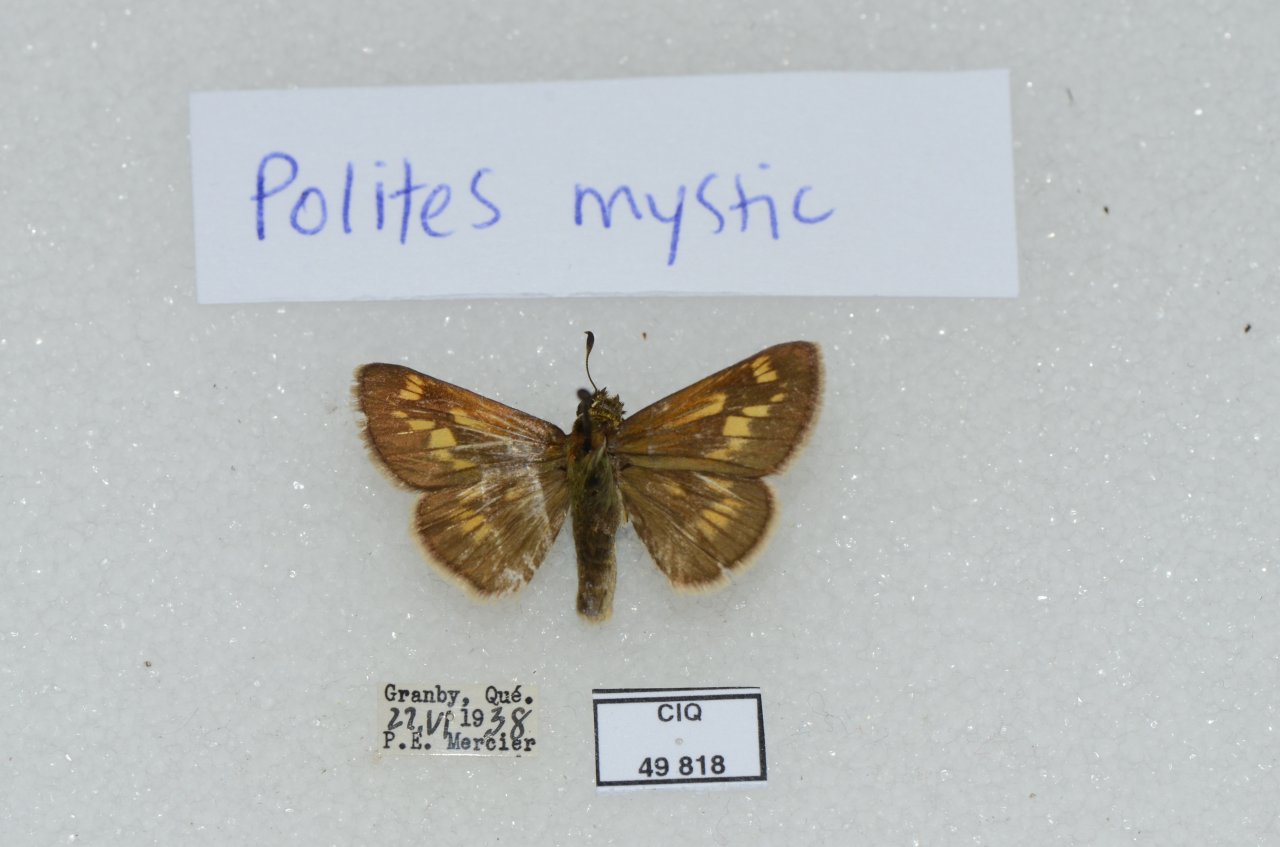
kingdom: Animalia
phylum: Arthropoda
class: Insecta
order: Lepidoptera
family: Hesperiidae
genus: Polites
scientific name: Polites
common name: Long Dash Skipper
